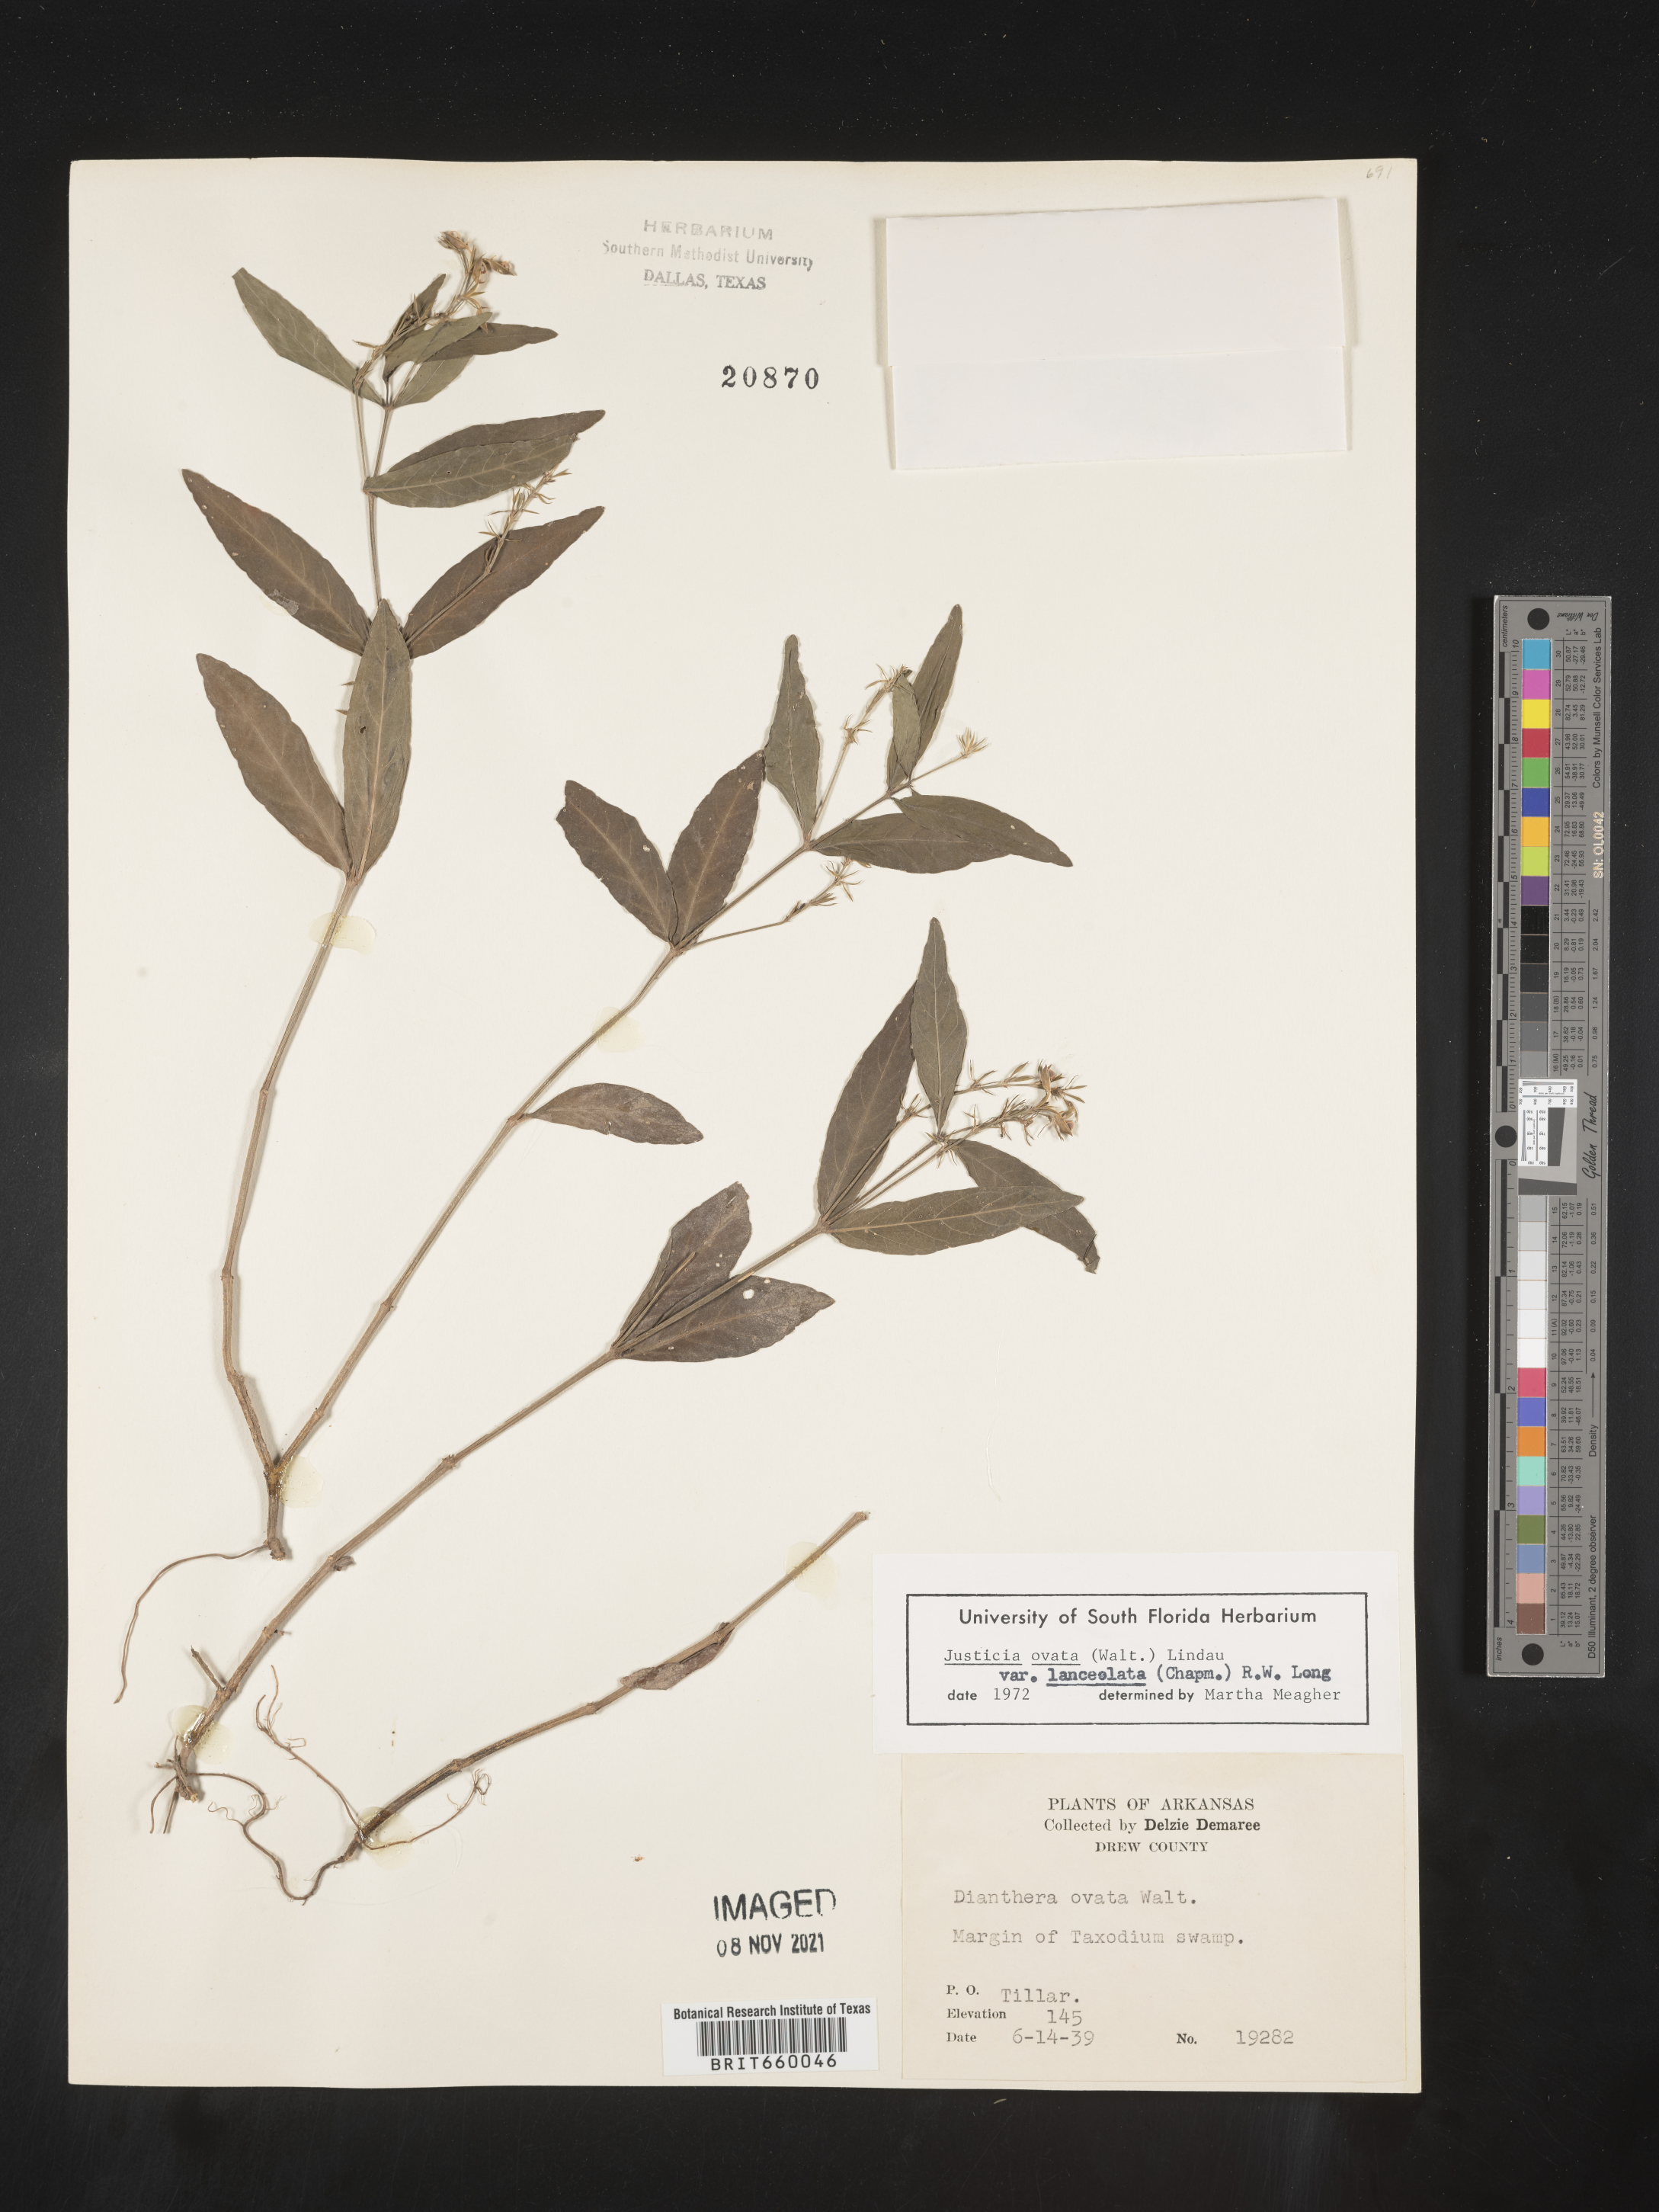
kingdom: Plantae
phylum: Tracheophyta
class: Magnoliopsida
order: Lamiales
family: Acanthaceae
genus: Justicia
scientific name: Justicia lanceolata
